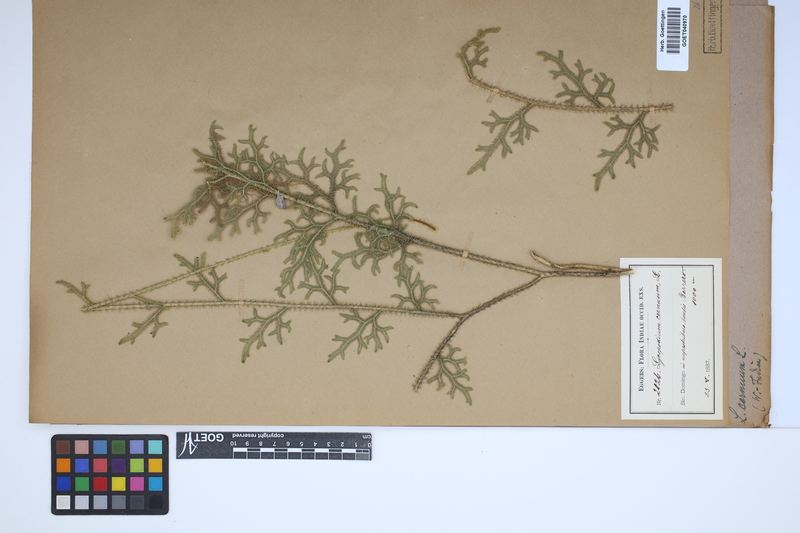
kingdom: Plantae
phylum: Tracheophyta
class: Lycopodiopsida
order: Lycopodiales
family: Lycopodiaceae
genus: Palhinhaea
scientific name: Palhinhaea cernua
